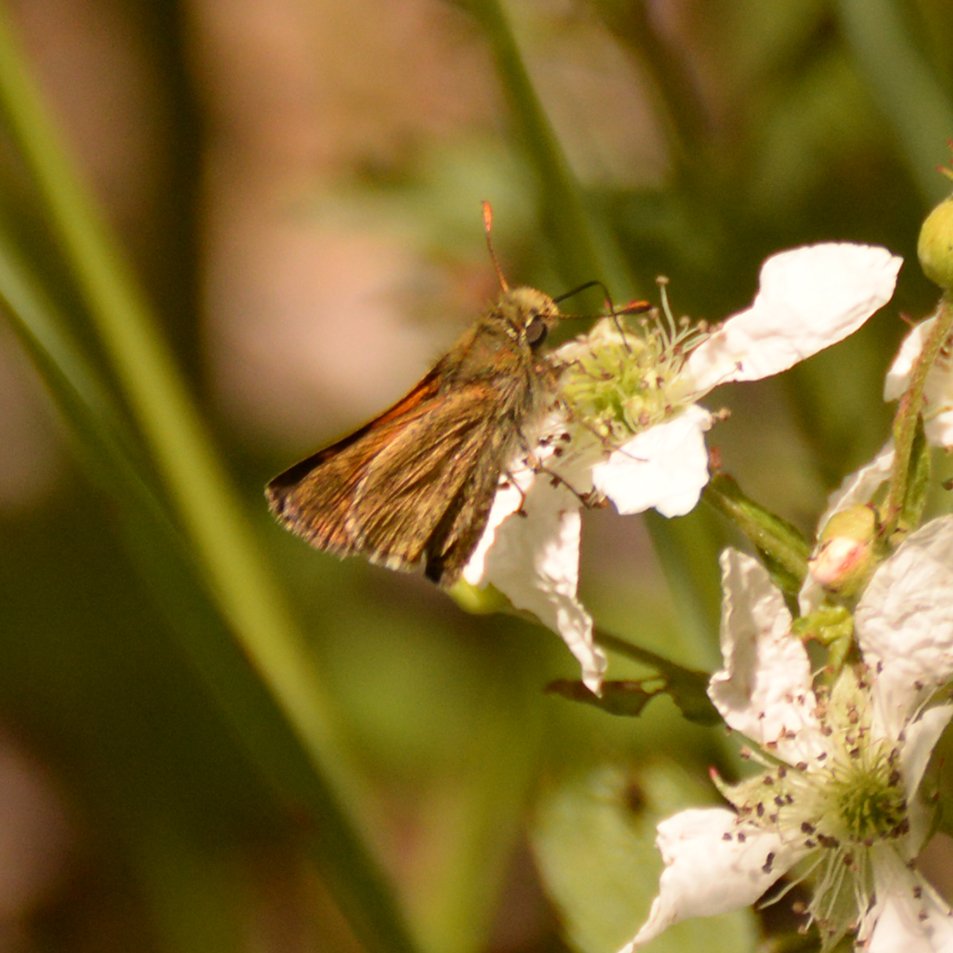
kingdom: Animalia
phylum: Arthropoda
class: Insecta
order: Lepidoptera
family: Hesperiidae
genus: Polites
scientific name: Polites themistocles
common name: Tawny-edged Skipper
